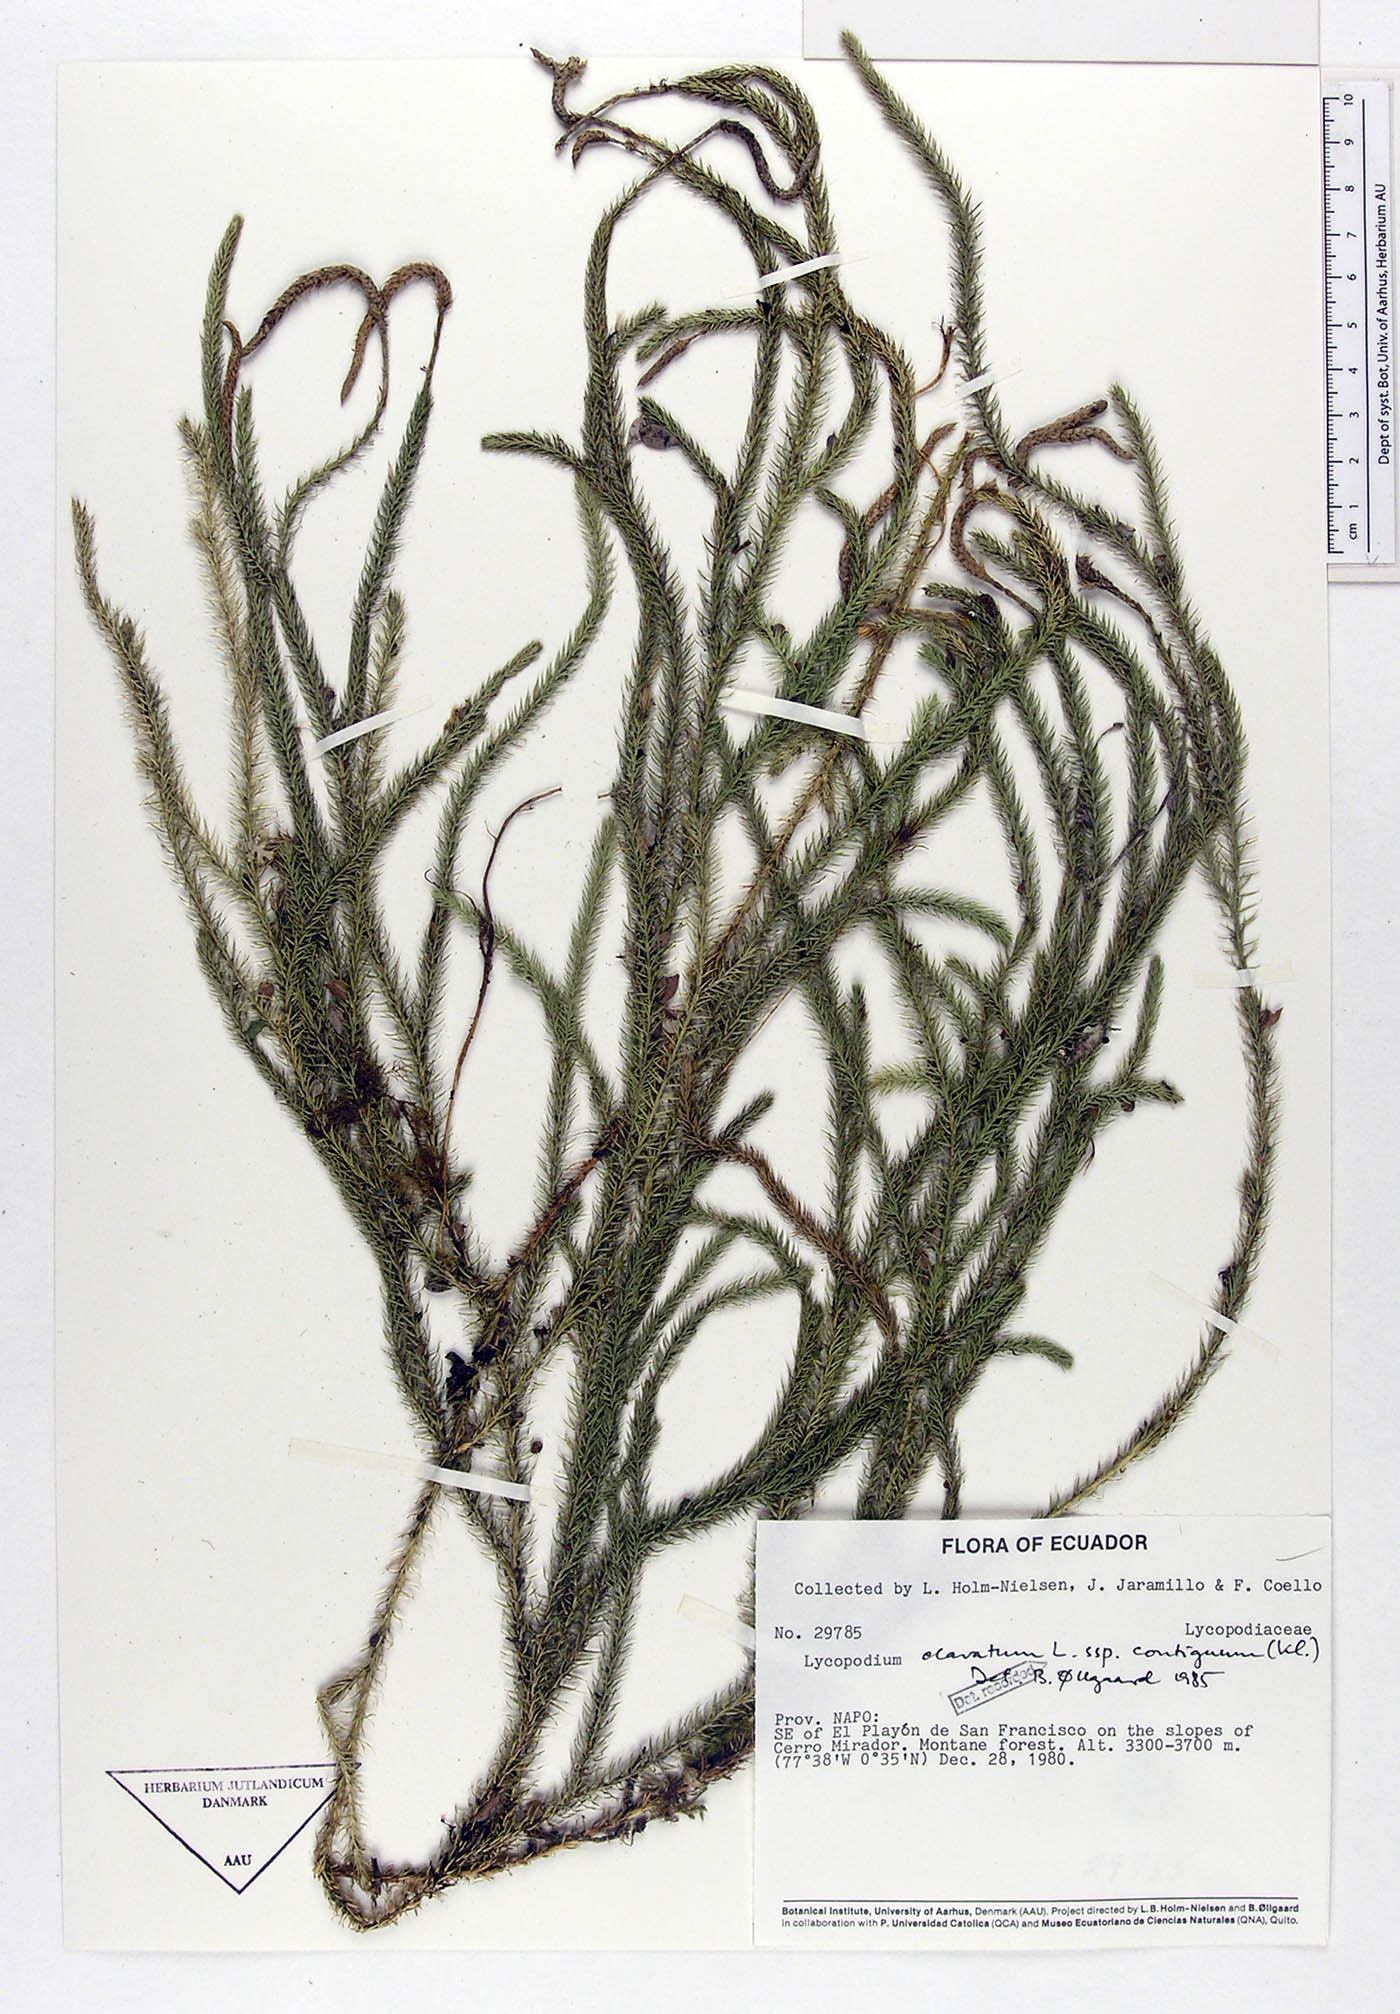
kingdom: Plantae
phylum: Tracheophyta
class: Lycopodiopsida
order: Lycopodiales
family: Lycopodiaceae
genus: Lycopodium
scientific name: Lycopodium clavatum
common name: Stag's-horn clubmoss
